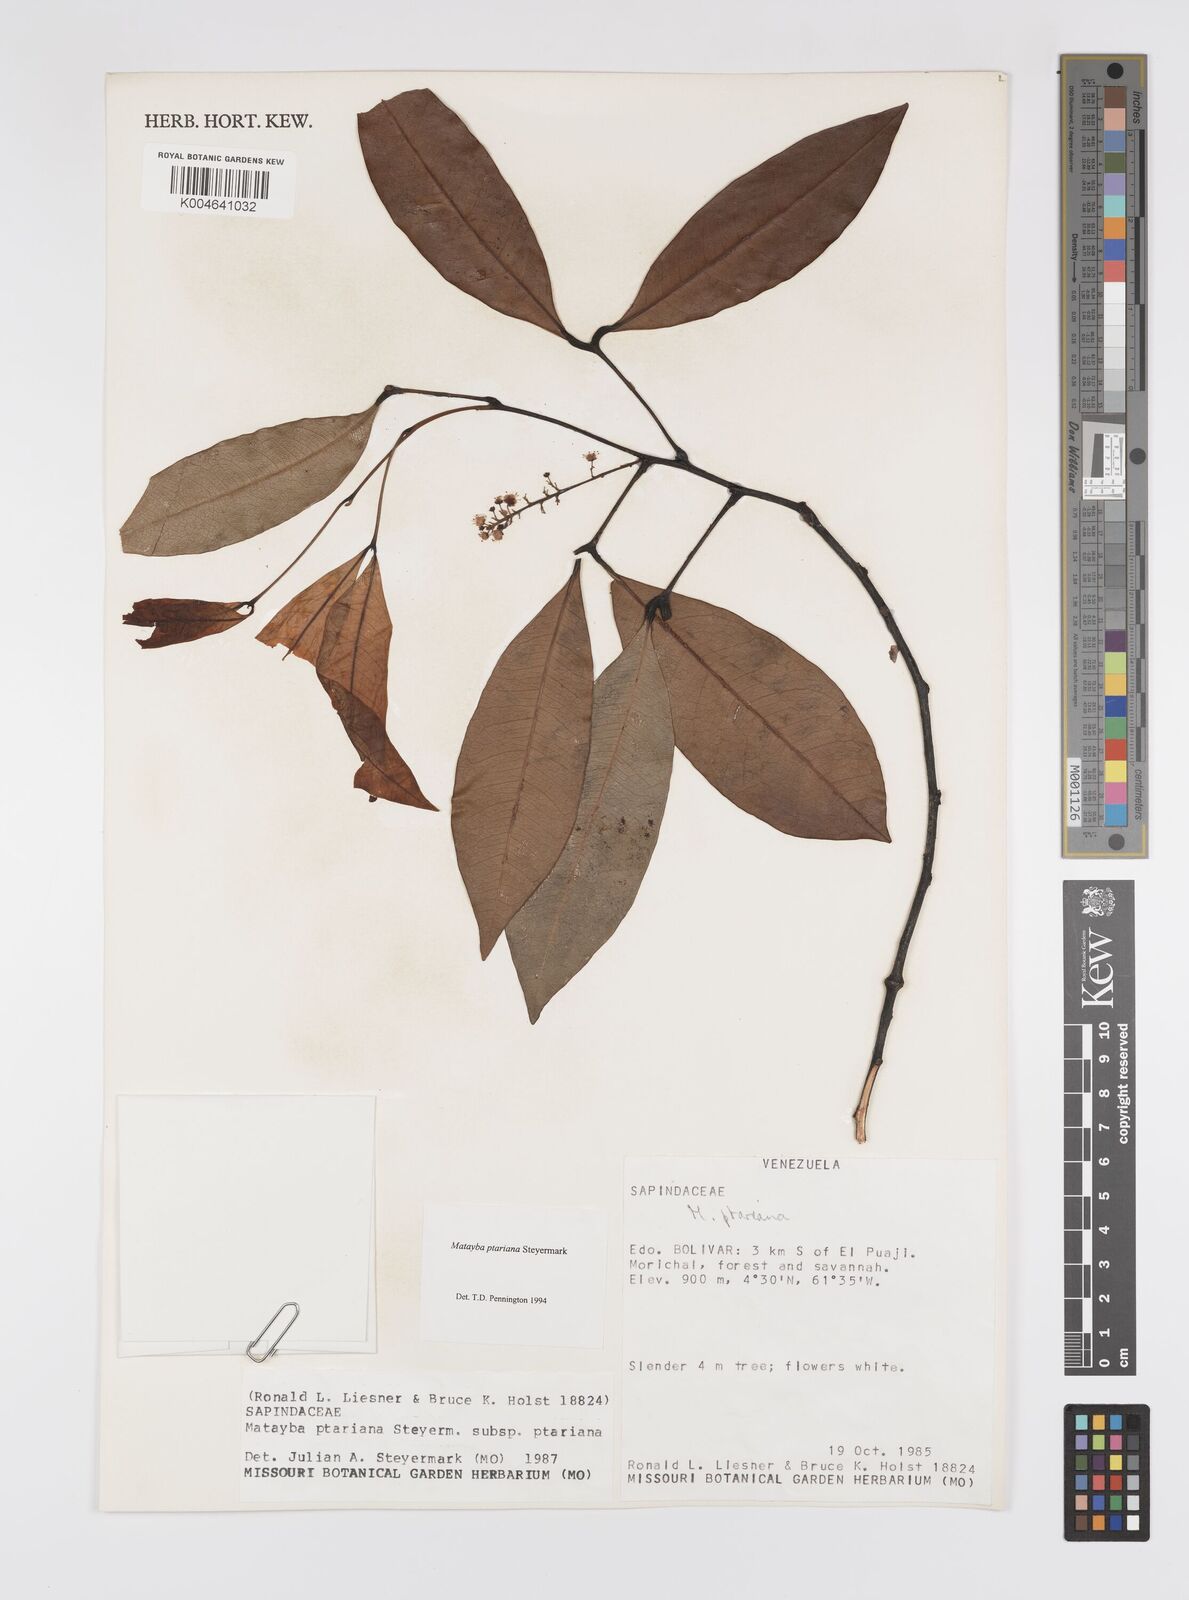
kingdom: Plantae
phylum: Tracheophyta
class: Magnoliopsida
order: Sapindales
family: Sapindaceae
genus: Matayba
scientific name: Matayba ptariana
